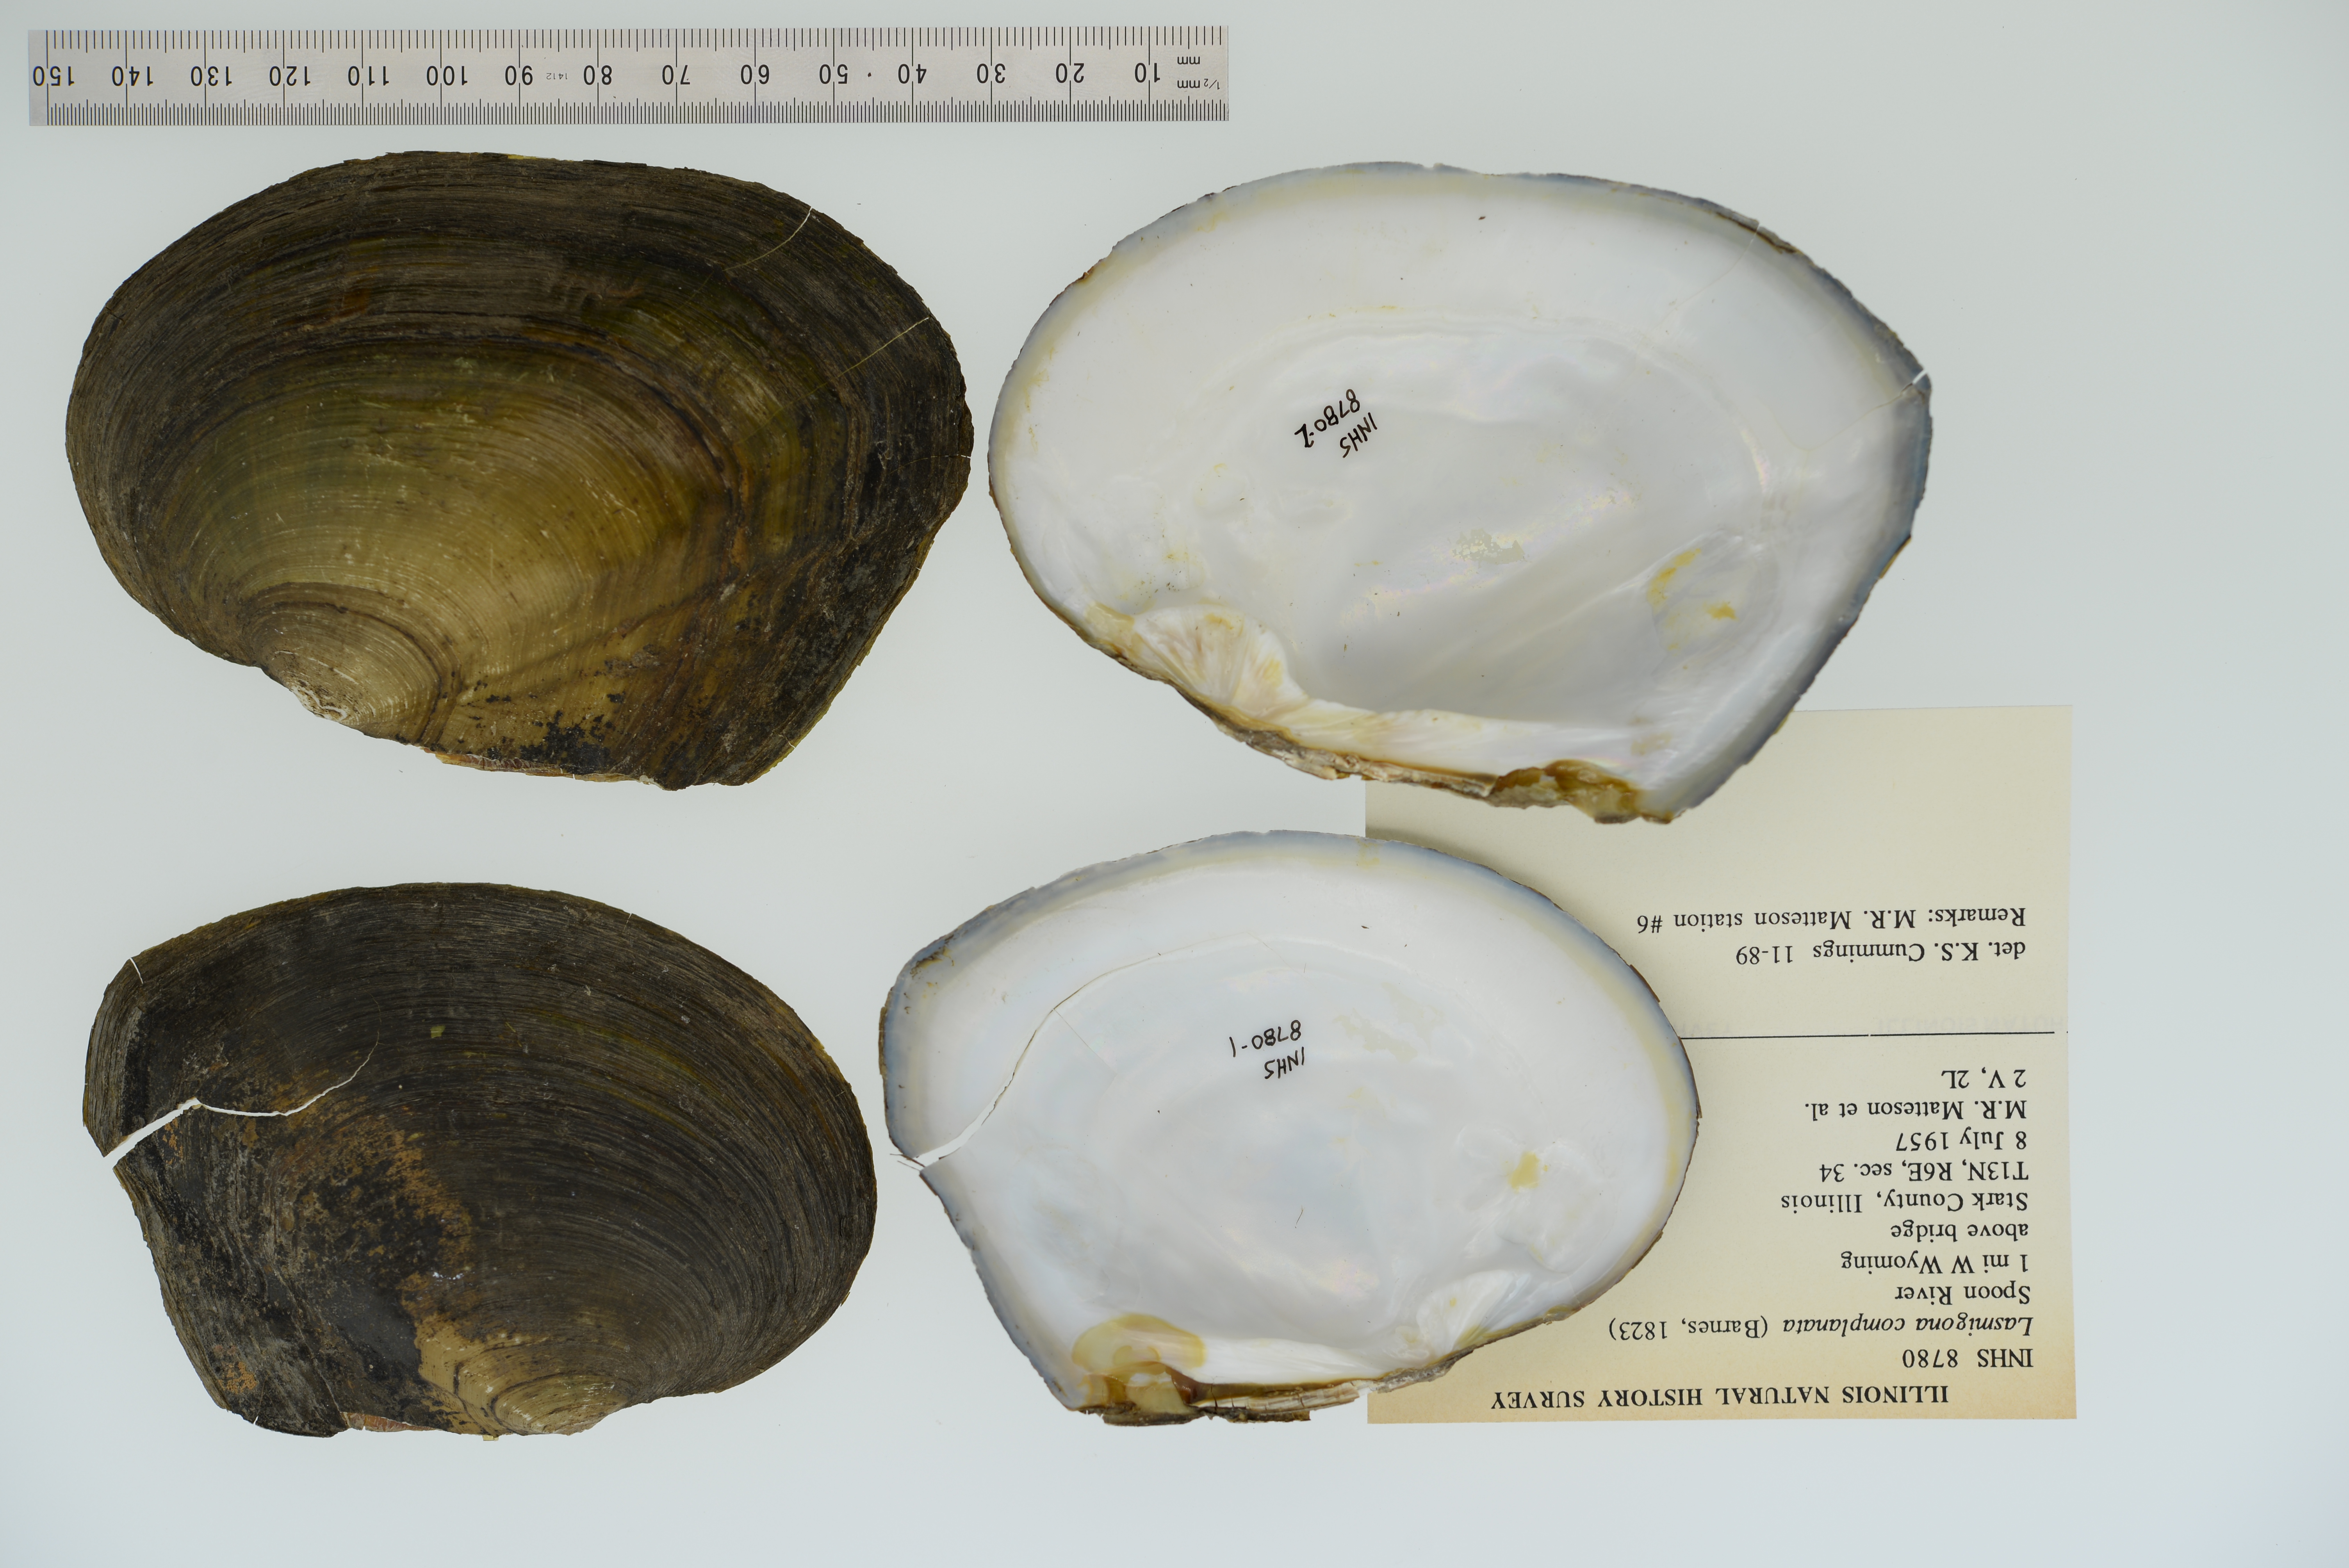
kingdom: Animalia
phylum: Mollusca
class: Bivalvia
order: Unionida
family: Unionidae
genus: Lasmigona
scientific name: Lasmigona complanata
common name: White heelsplitter
